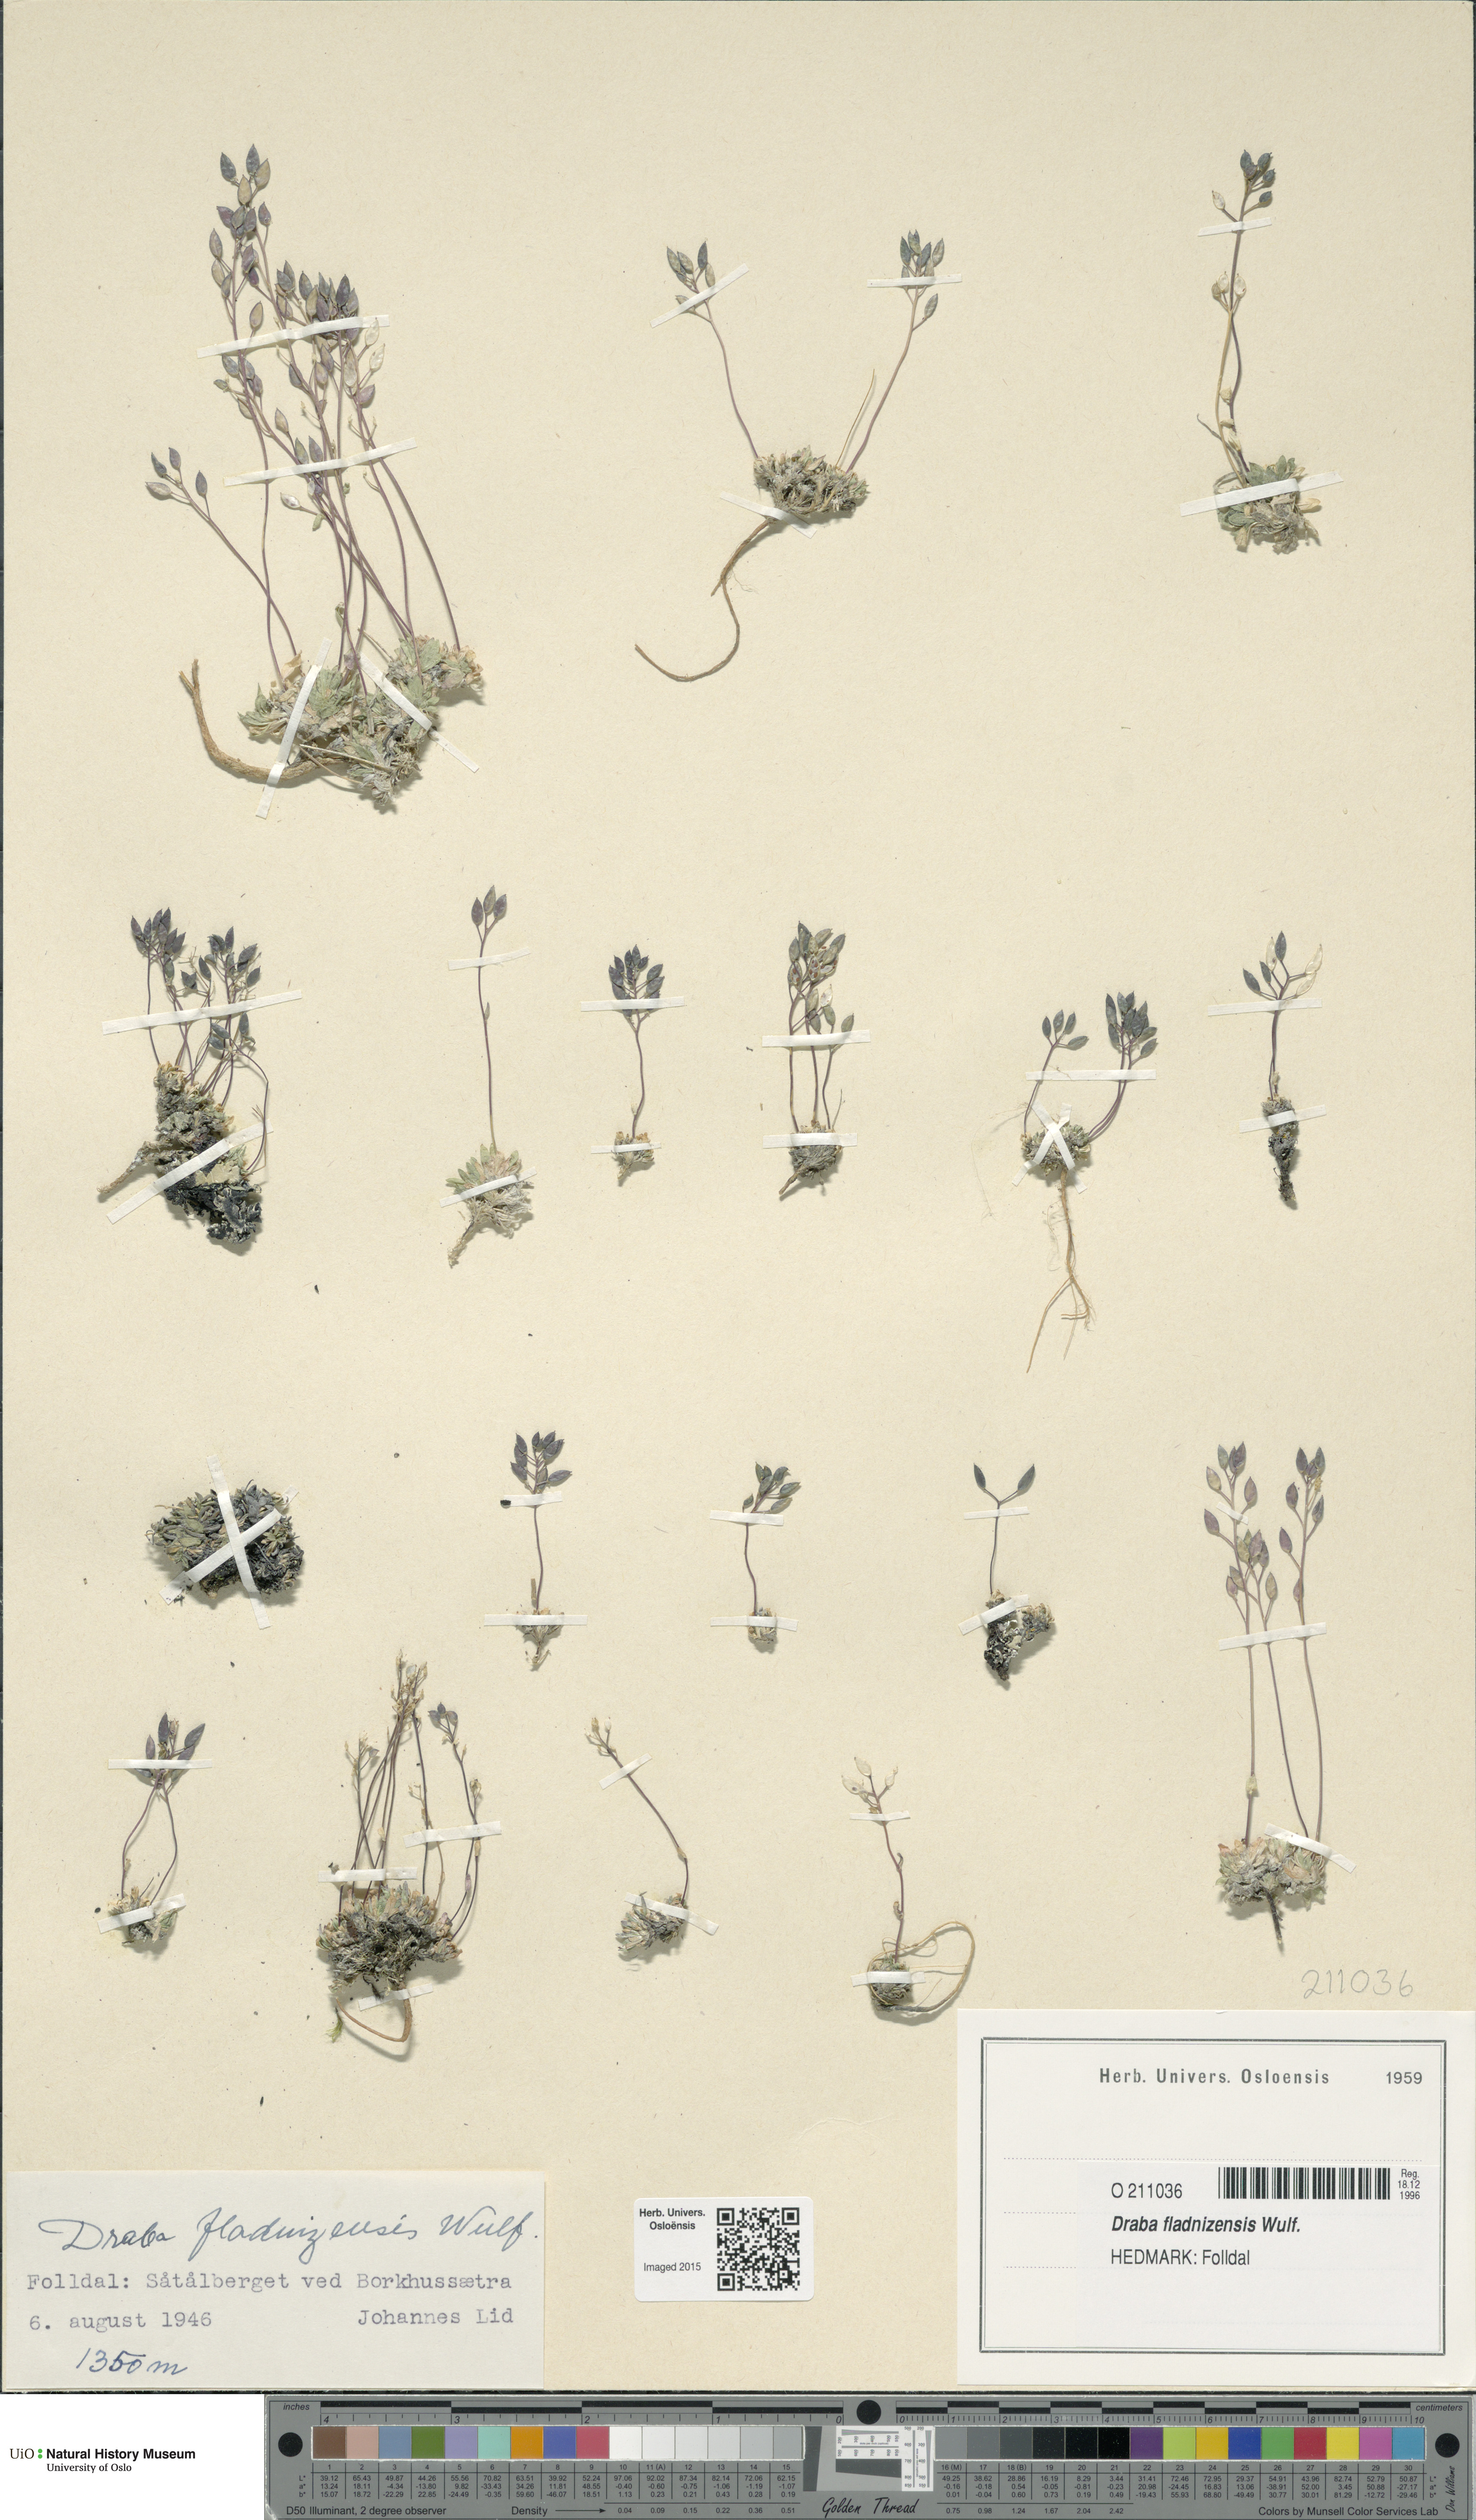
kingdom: Plantae
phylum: Tracheophyta
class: Magnoliopsida
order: Brassicales
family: Brassicaceae
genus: Draba
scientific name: Draba fladnizensis
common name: Austrian draba
